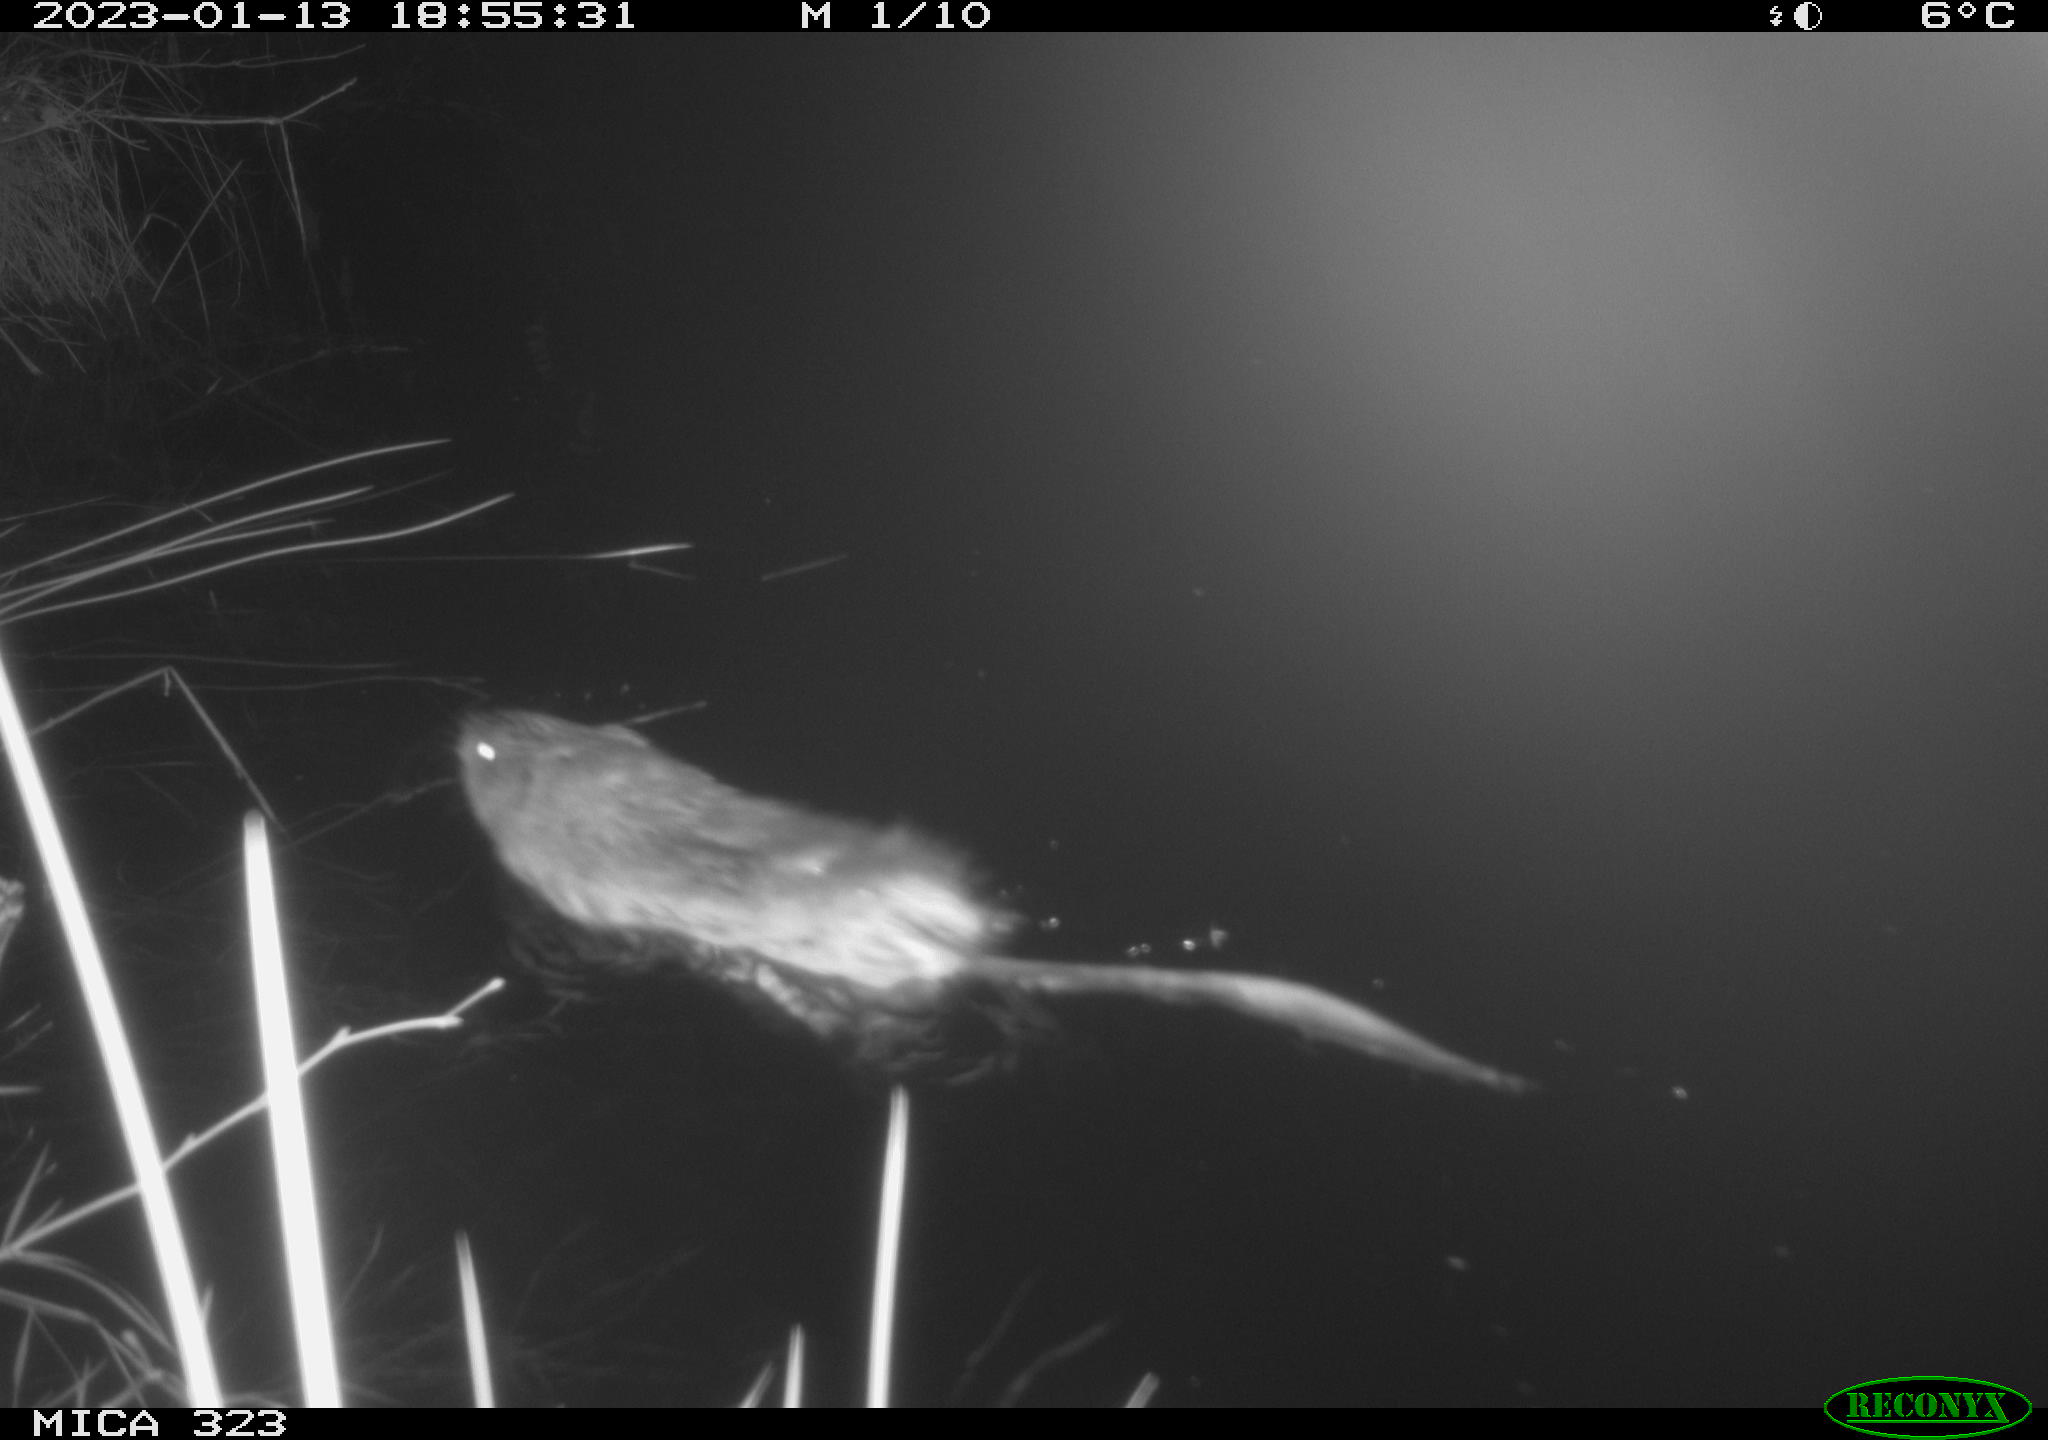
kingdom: Animalia
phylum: Chordata
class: Mammalia
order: Rodentia
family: Cricetidae
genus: Ondatra
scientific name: Ondatra zibethicus
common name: Muskrat
